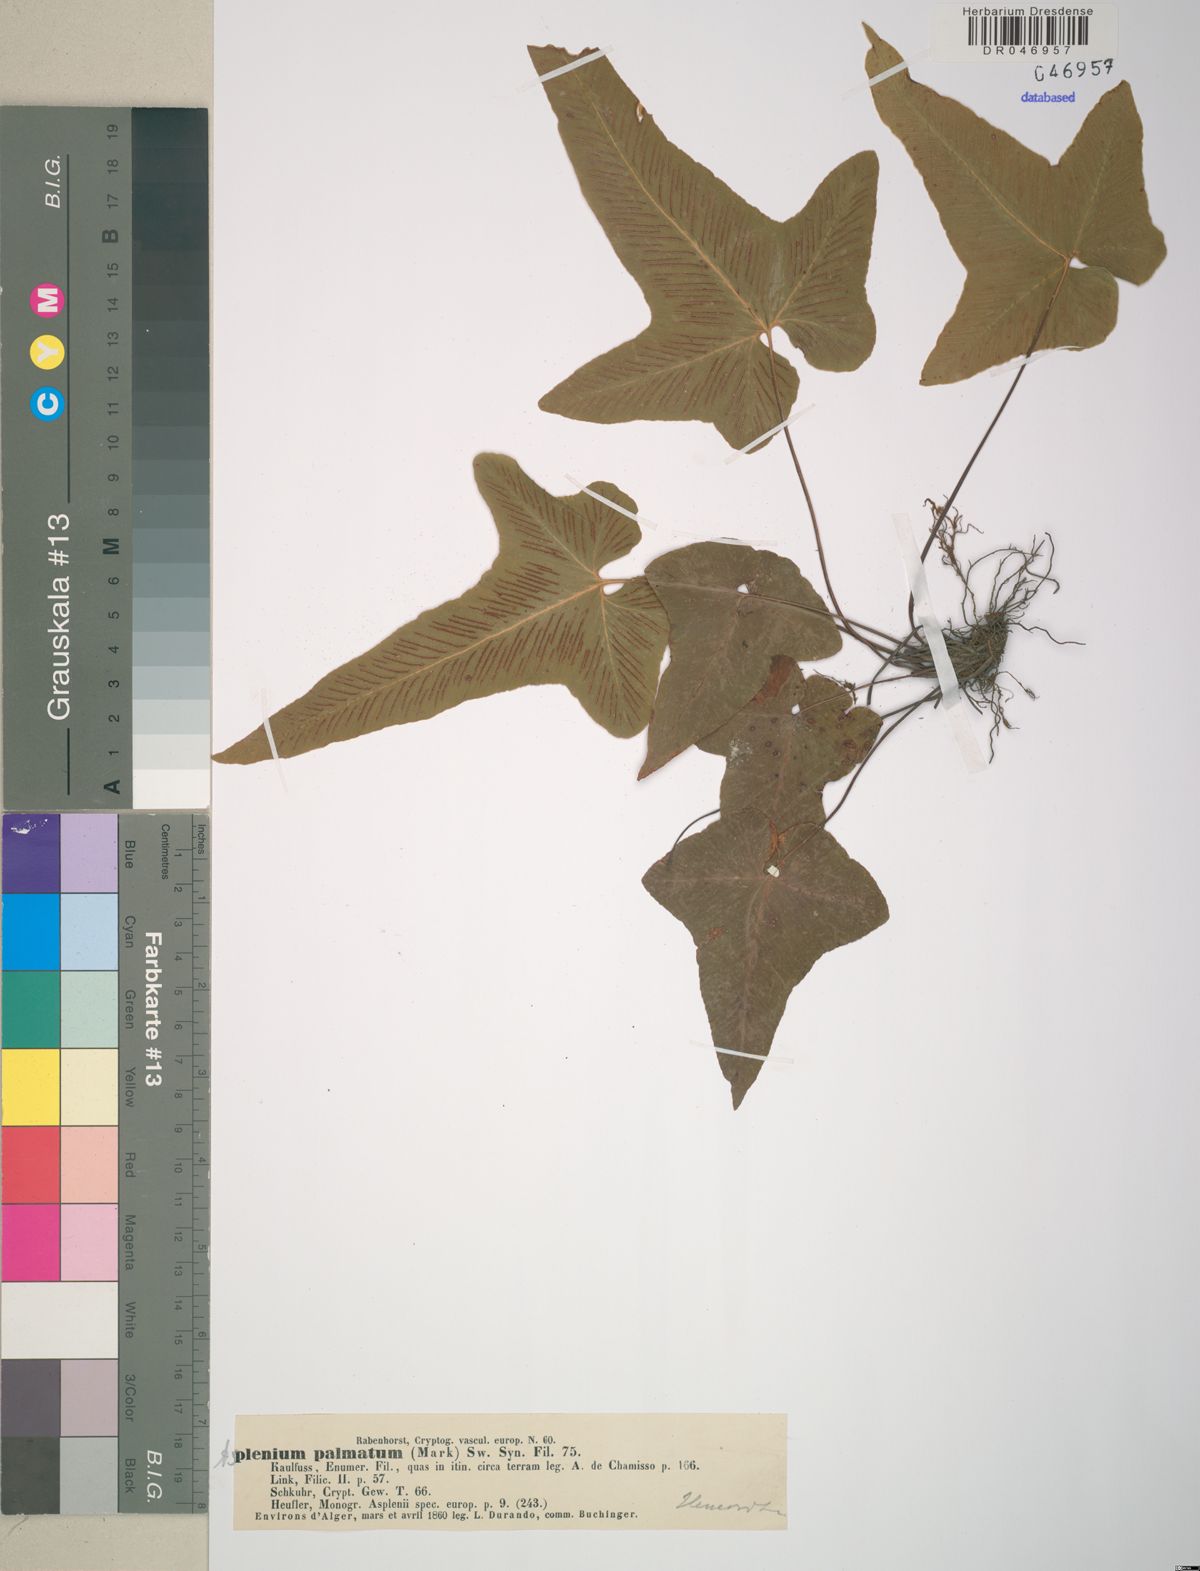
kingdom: Plantae
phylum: Tracheophyta
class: Polypodiopsida
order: Polypodiales
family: Aspleniaceae
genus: Asplenium
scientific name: Asplenium hemionitis
